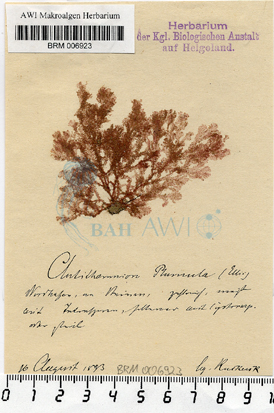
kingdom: Plantae
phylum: Rhodophyta
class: Florideophyceae
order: Ceramiales
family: Ceramiaceae
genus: Pterothamnion
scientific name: Pterothamnion plumula
